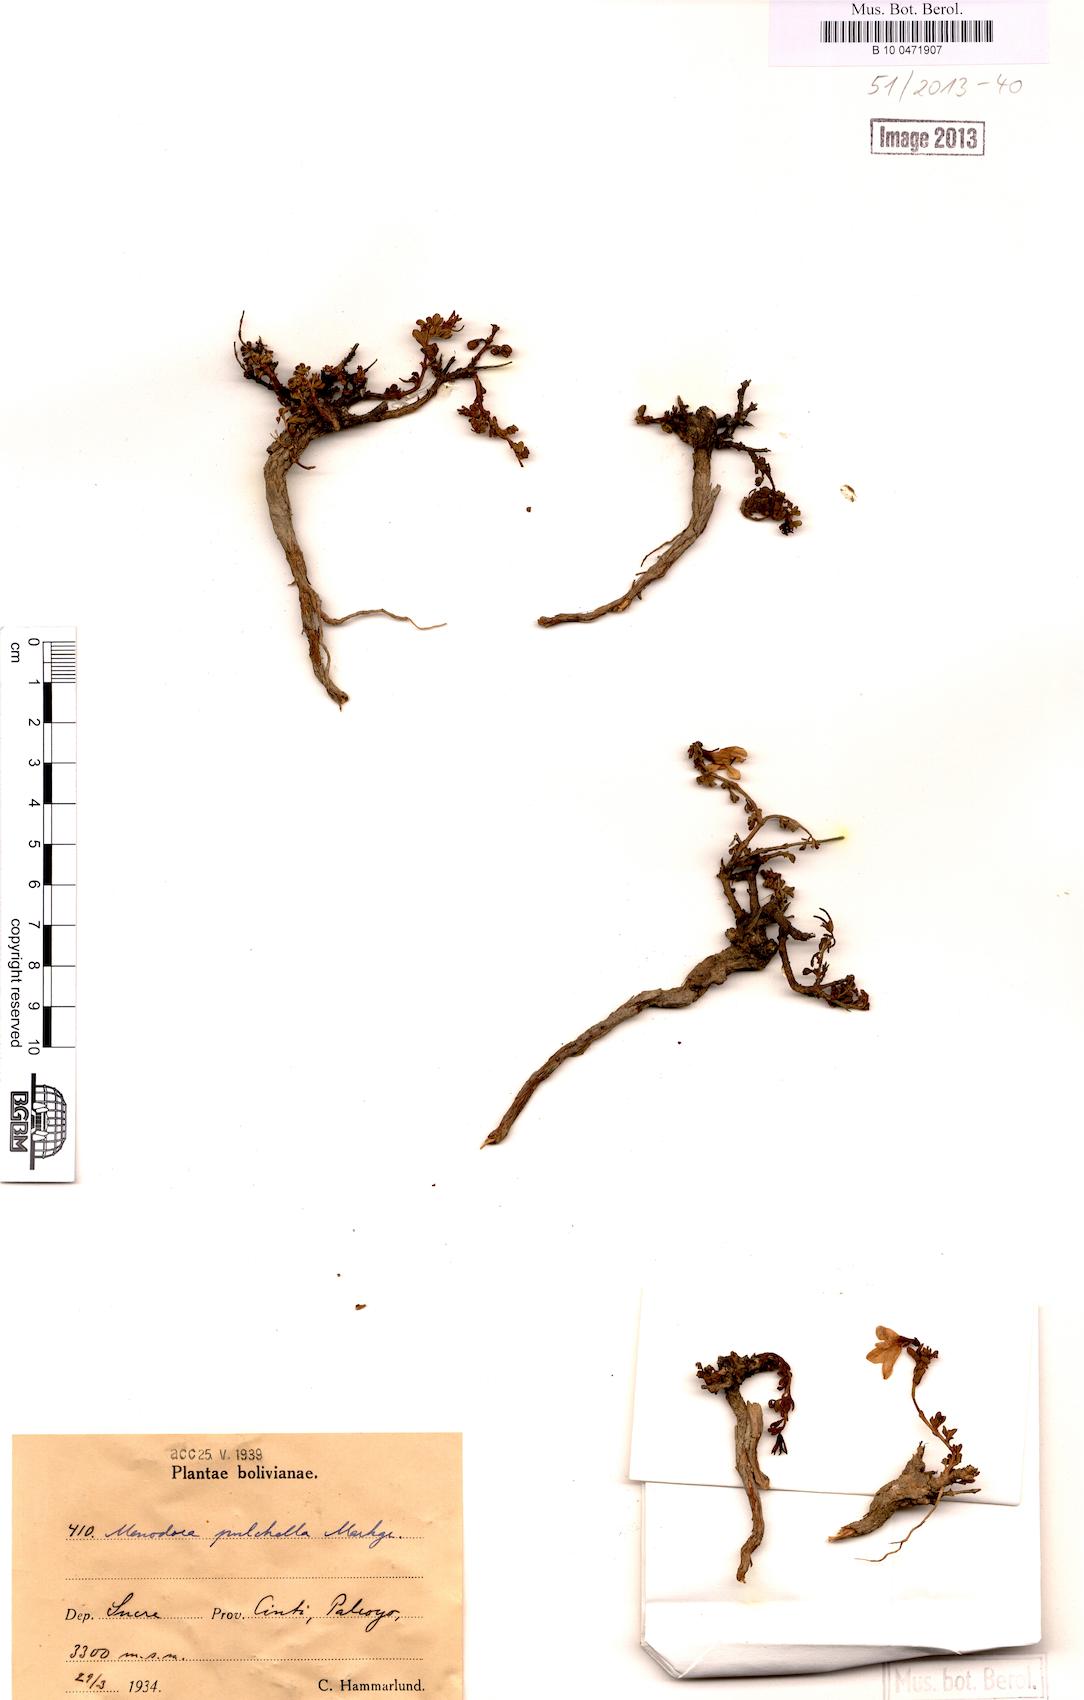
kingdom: Plantae
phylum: Tracheophyta
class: Magnoliopsida
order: Lamiales
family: Oleaceae
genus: Menodora
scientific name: Menodora pulchella
